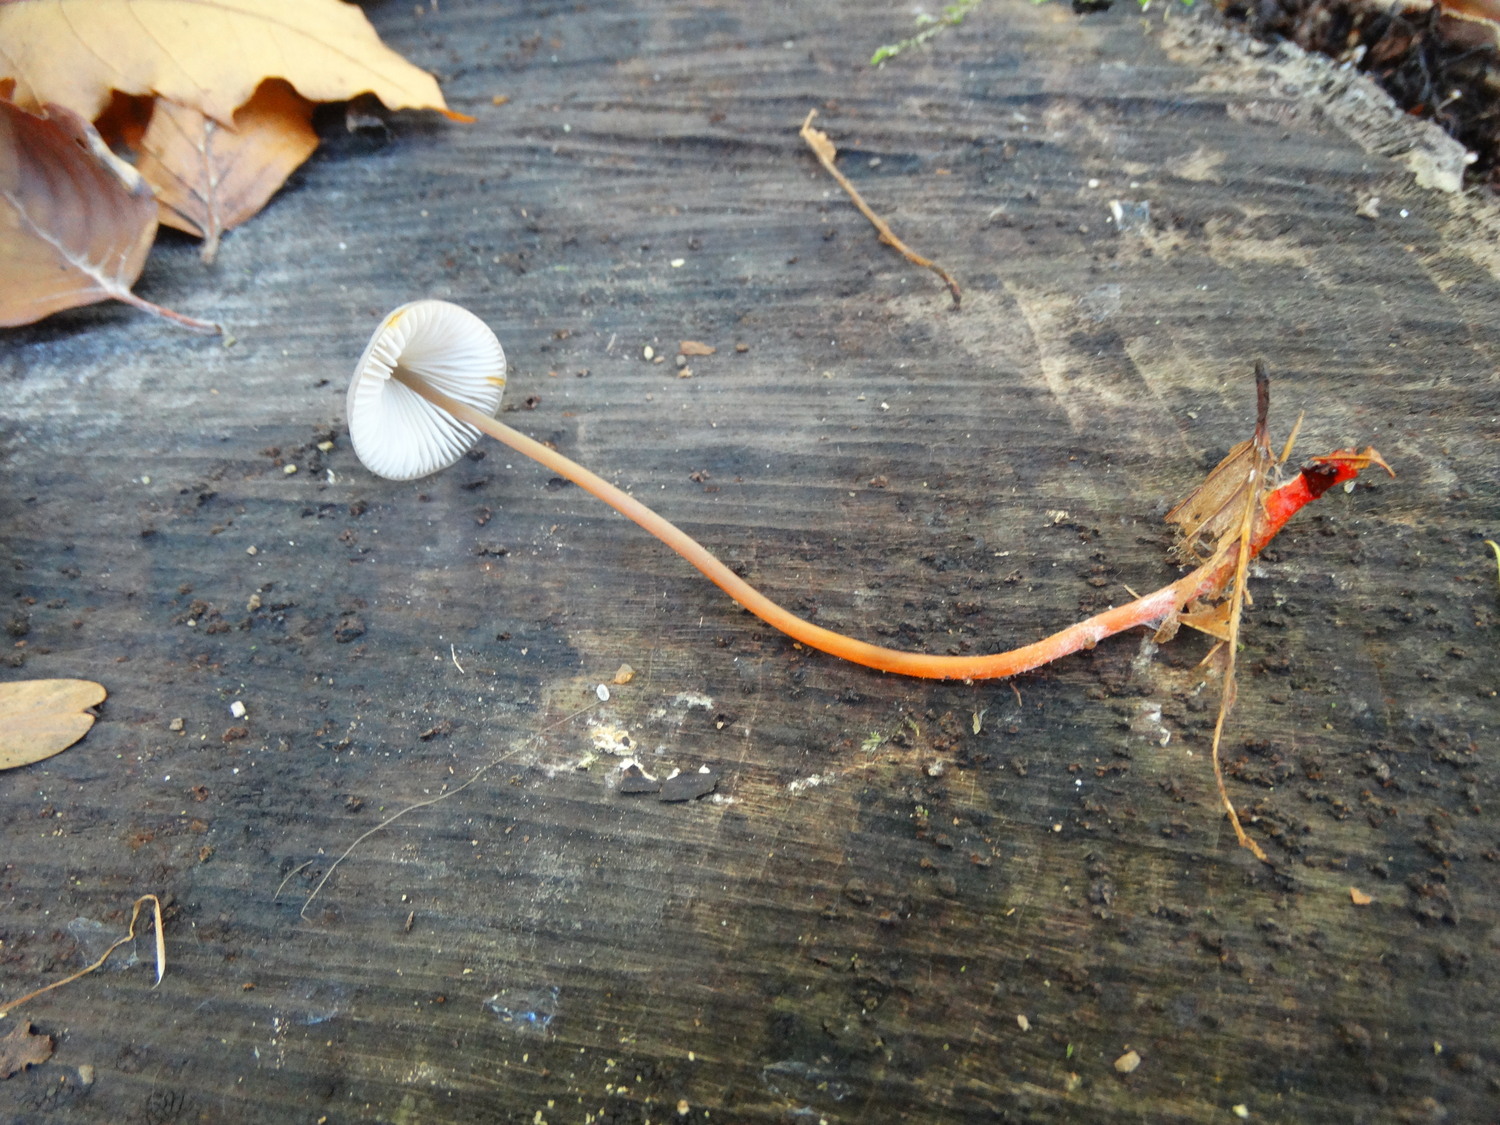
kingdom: Fungi
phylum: Basidiomycota
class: Agaricomycetes
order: Agaricales
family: Mycenaceae
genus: Mycena
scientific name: Mycena crocata
